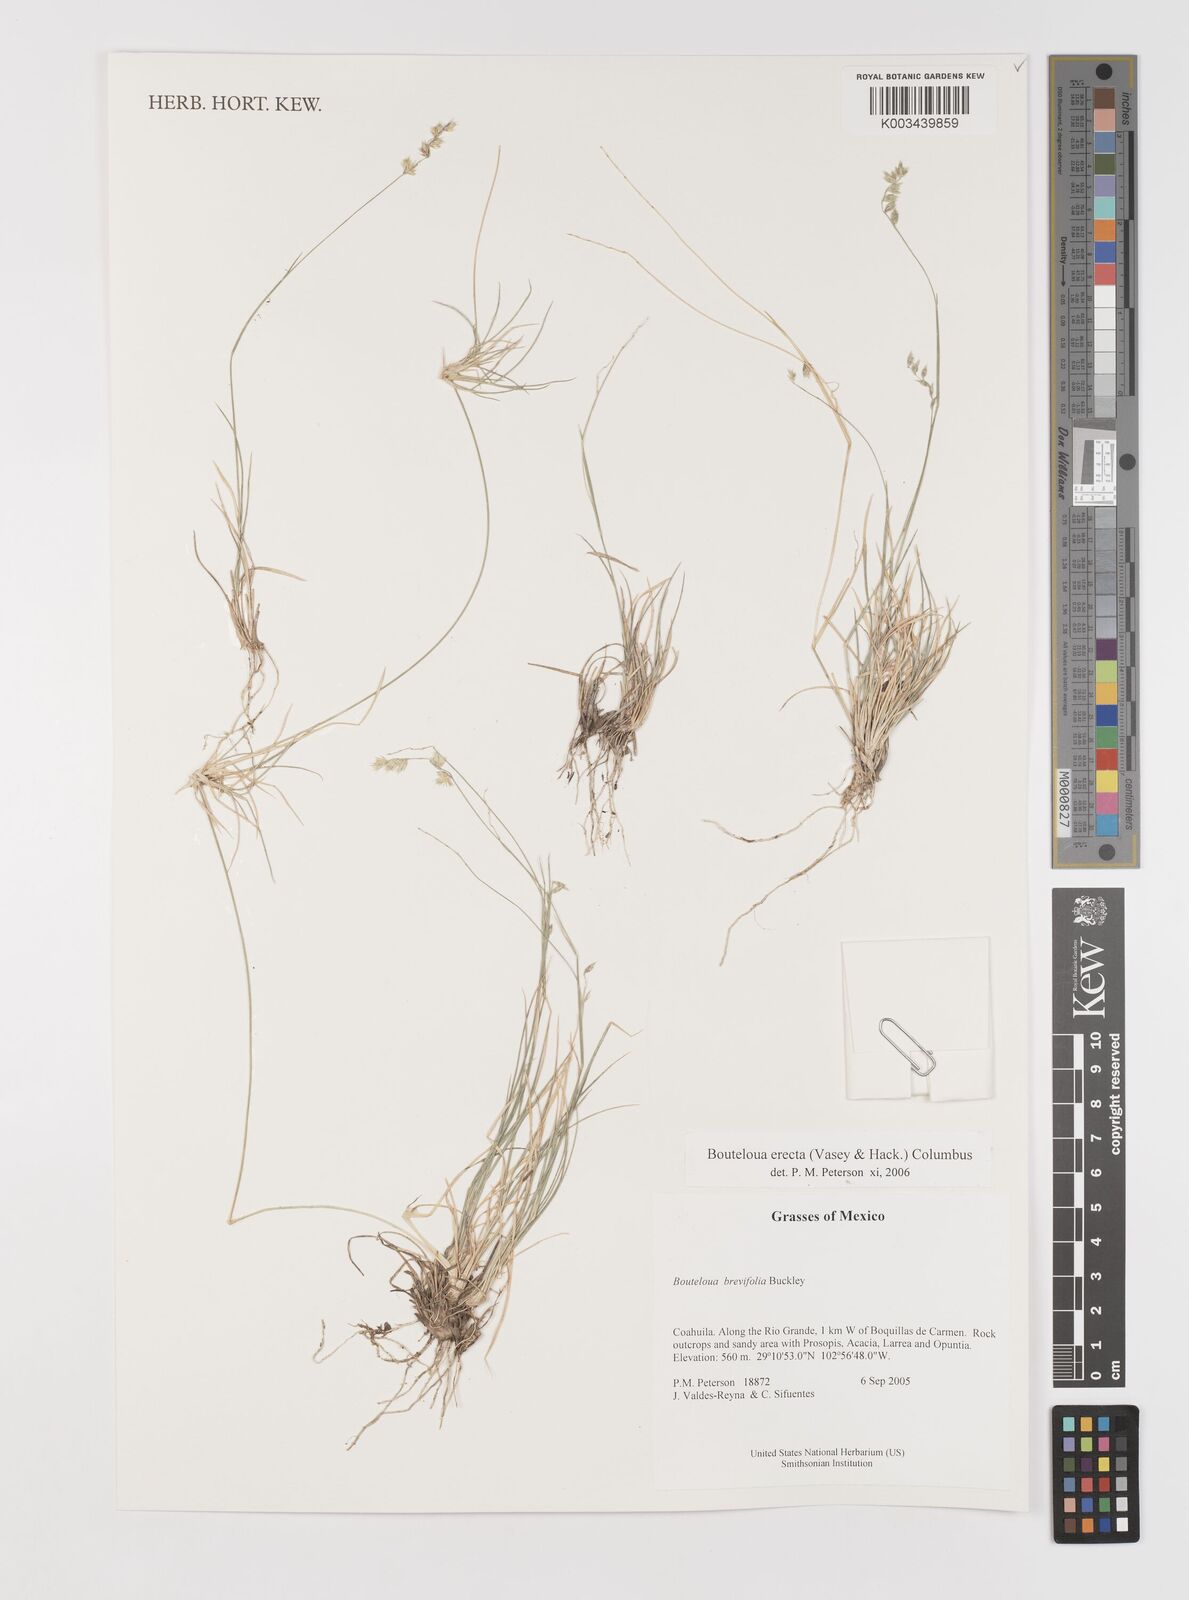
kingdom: Plantae
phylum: Tracheophyta
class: Liliopsida
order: Poales
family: Poaceae
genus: Bouteloua
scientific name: Bouteloua erecta
